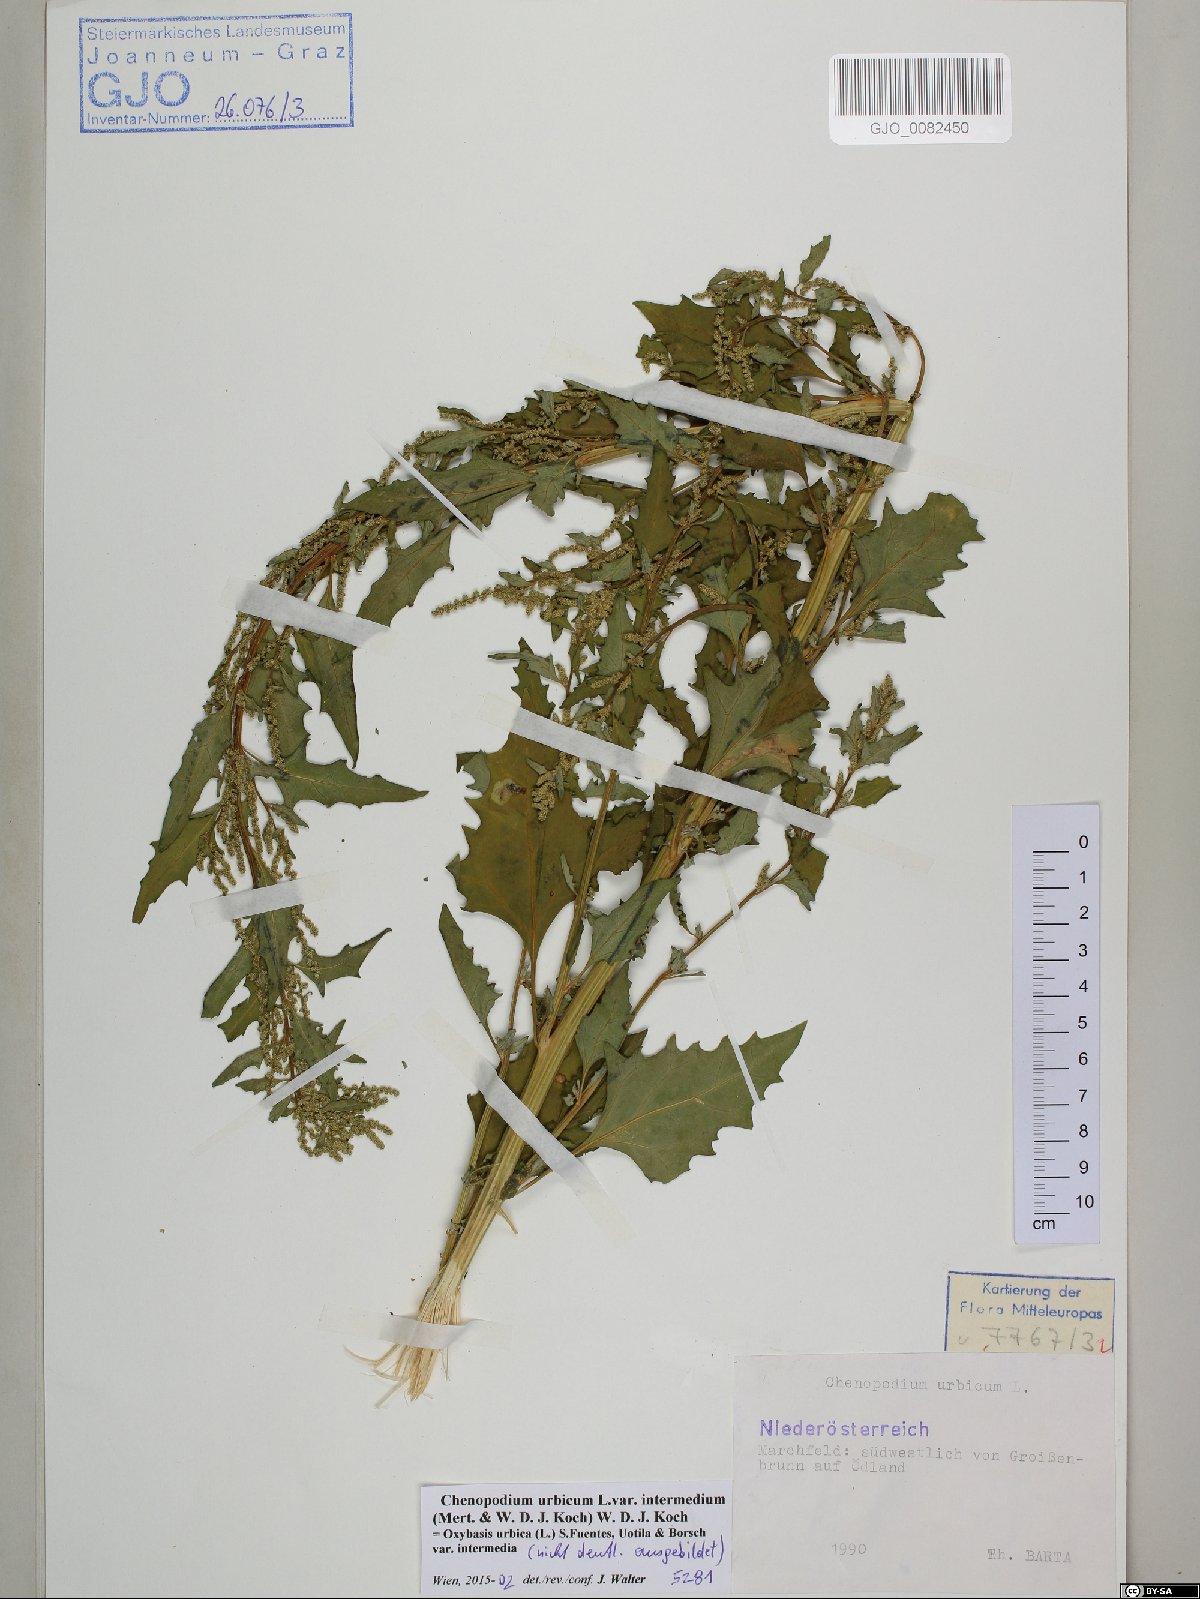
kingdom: Plantae
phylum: Tracheophyta
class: Magnoliopsida
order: Caryophyllales
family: Amaranthaceae
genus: Oxybasis
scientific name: Oxybasis rhombifolia
